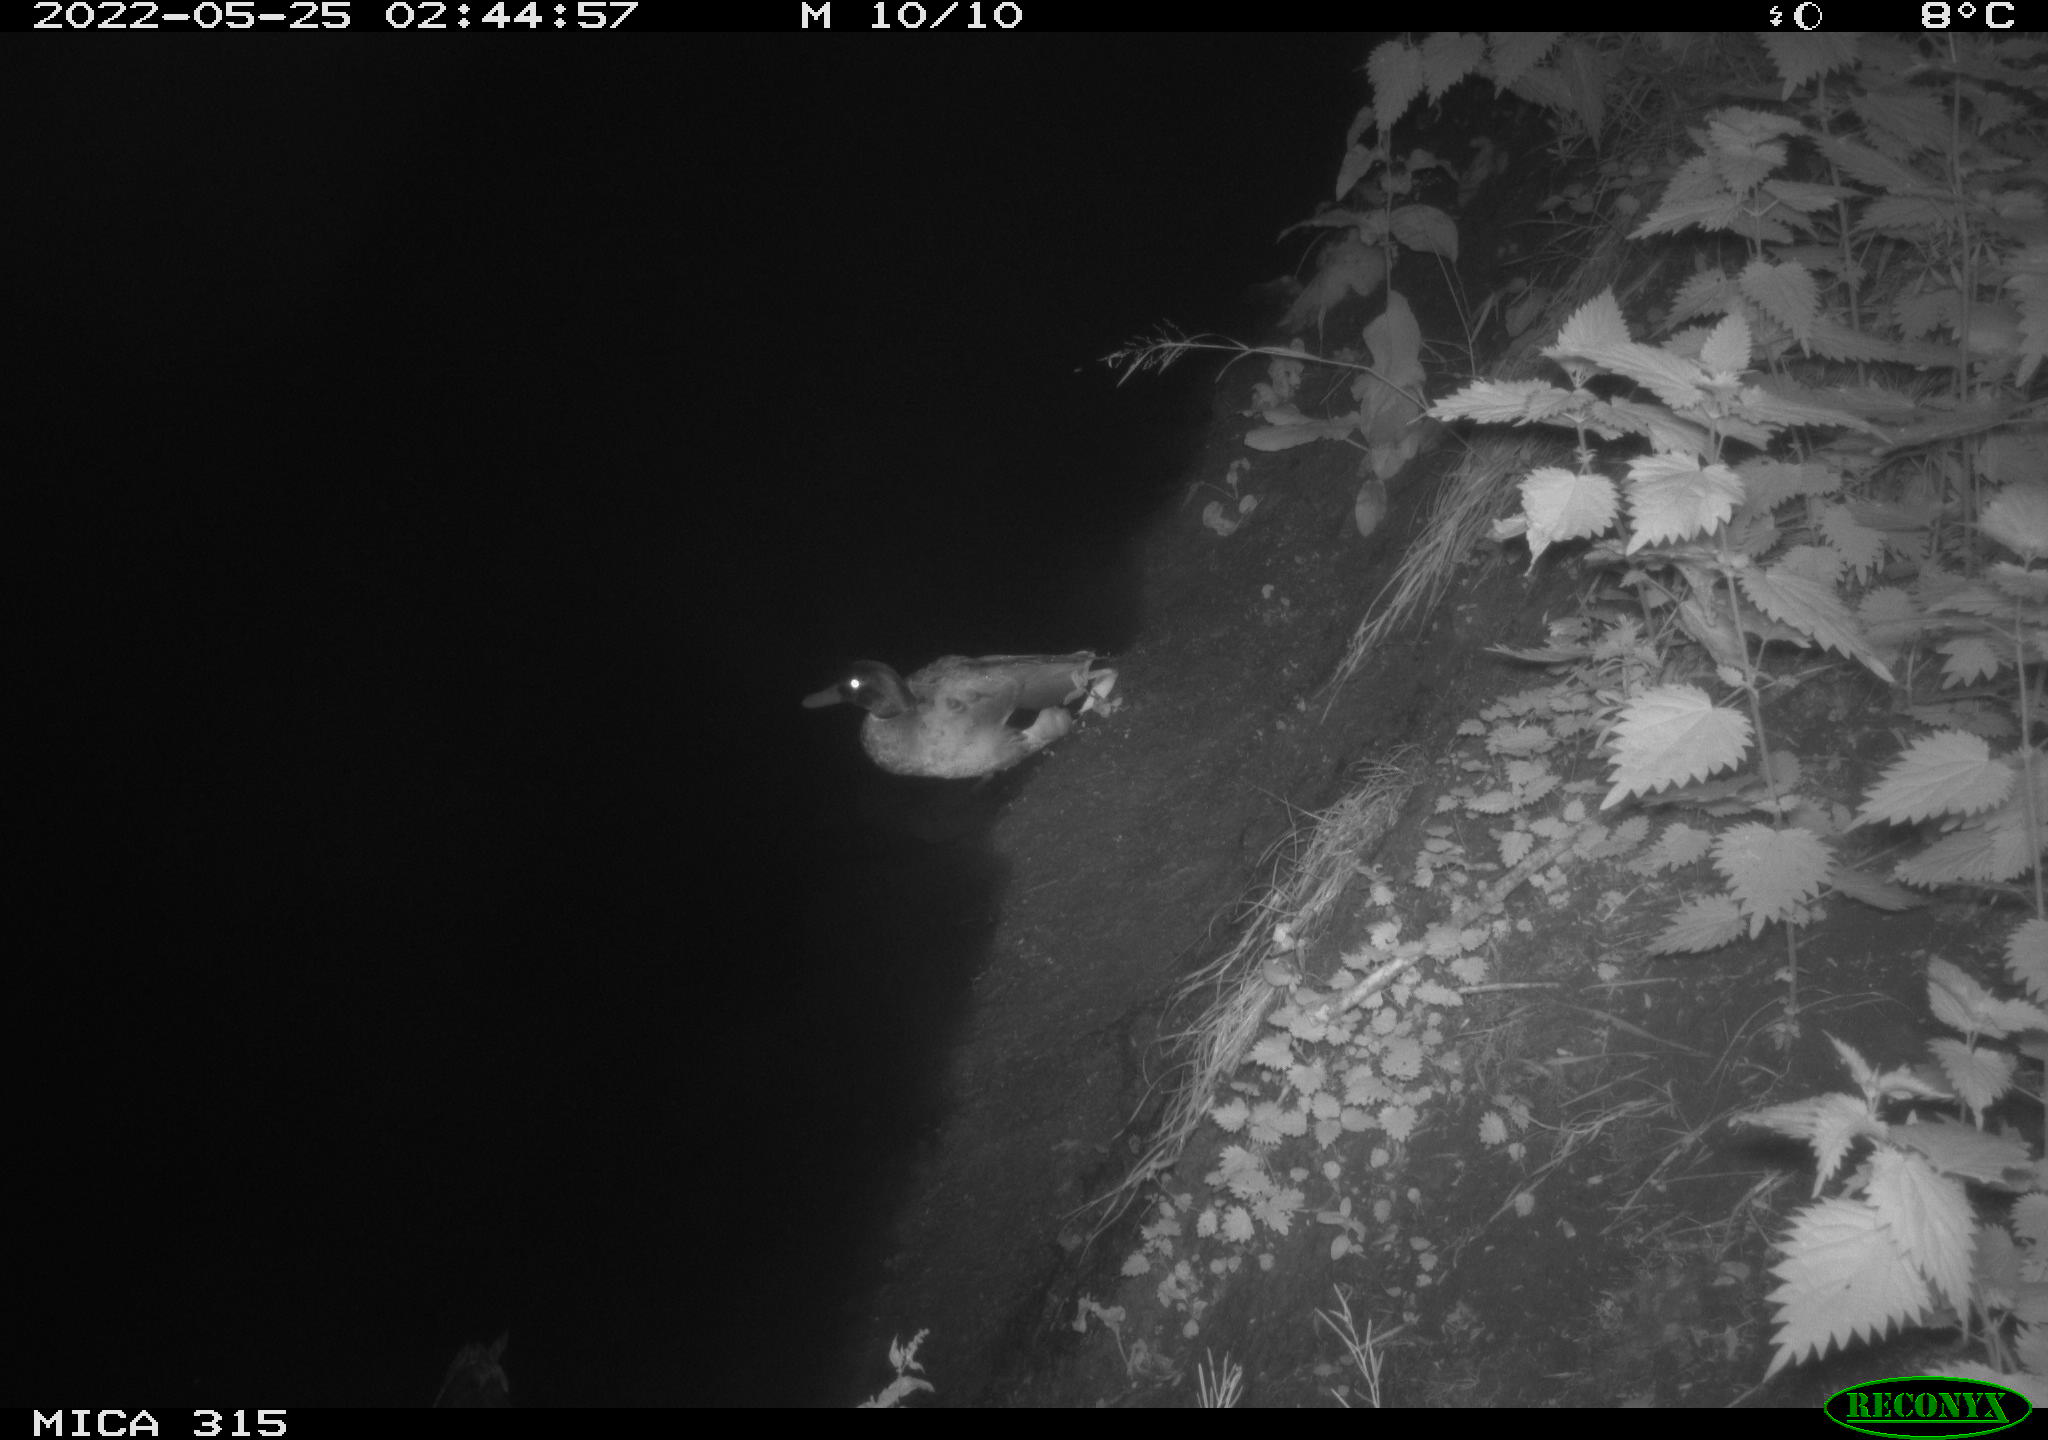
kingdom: Animalia
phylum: Chordata
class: Aves
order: Anseriformes
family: Anatidae
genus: Anas
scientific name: Anas
